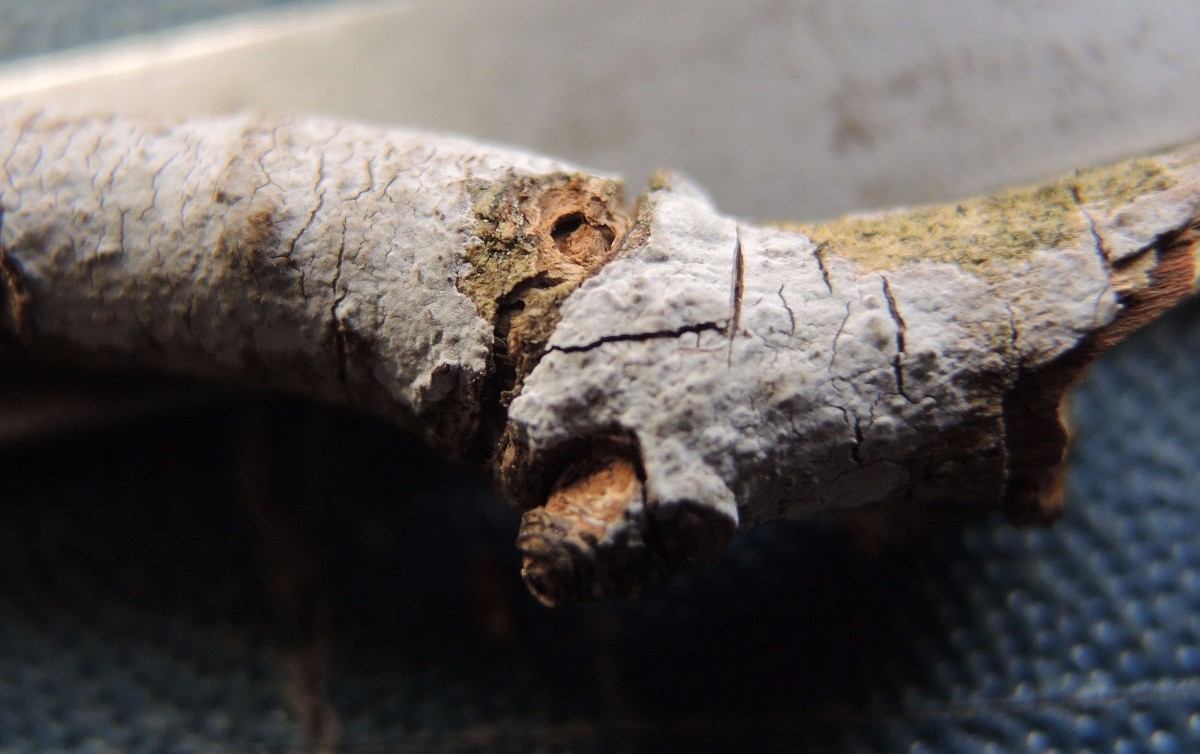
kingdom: Fungi
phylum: Basidiomycota
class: Agaricomycetes
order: Russulales
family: Peniophoraceae
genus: Peniophora
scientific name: Peniophora lycii
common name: grynet voksskind
